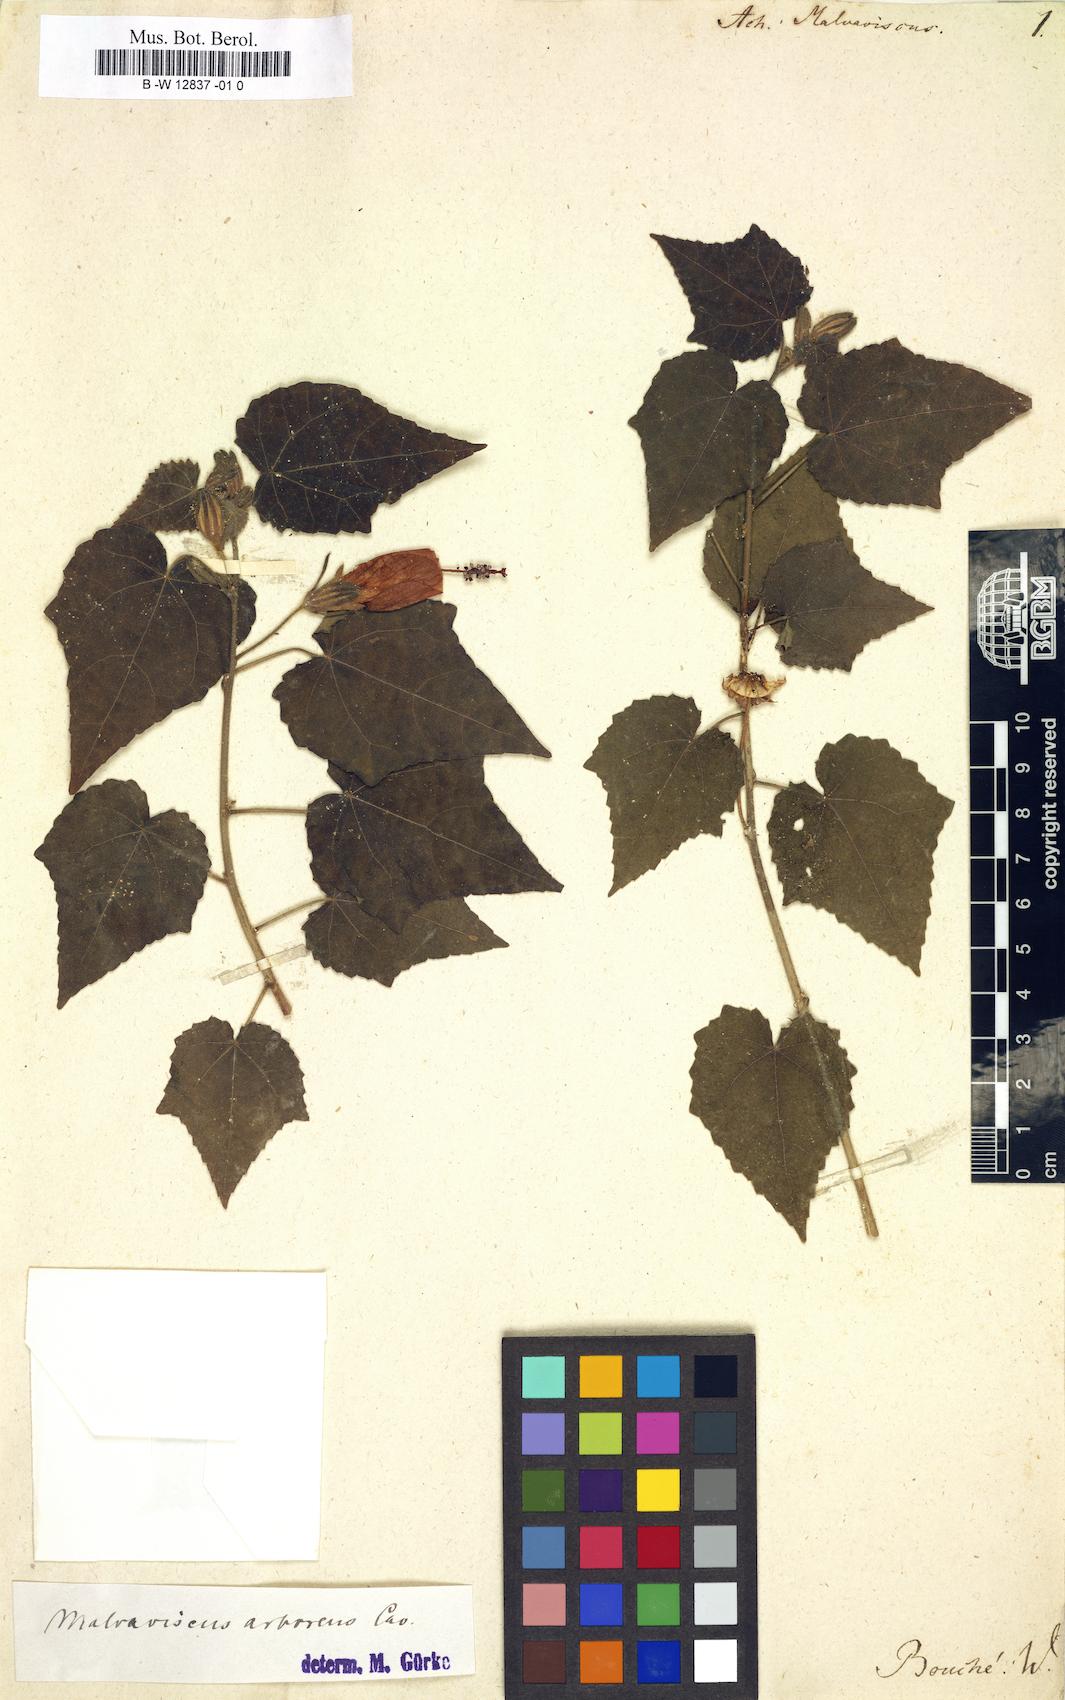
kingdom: Plantae
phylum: Tracheophyta
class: Magnoliopsida
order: Malvales
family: Malvaceae
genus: Malvaviscus
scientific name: Malvaviscus arboreus
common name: Wax mallow
